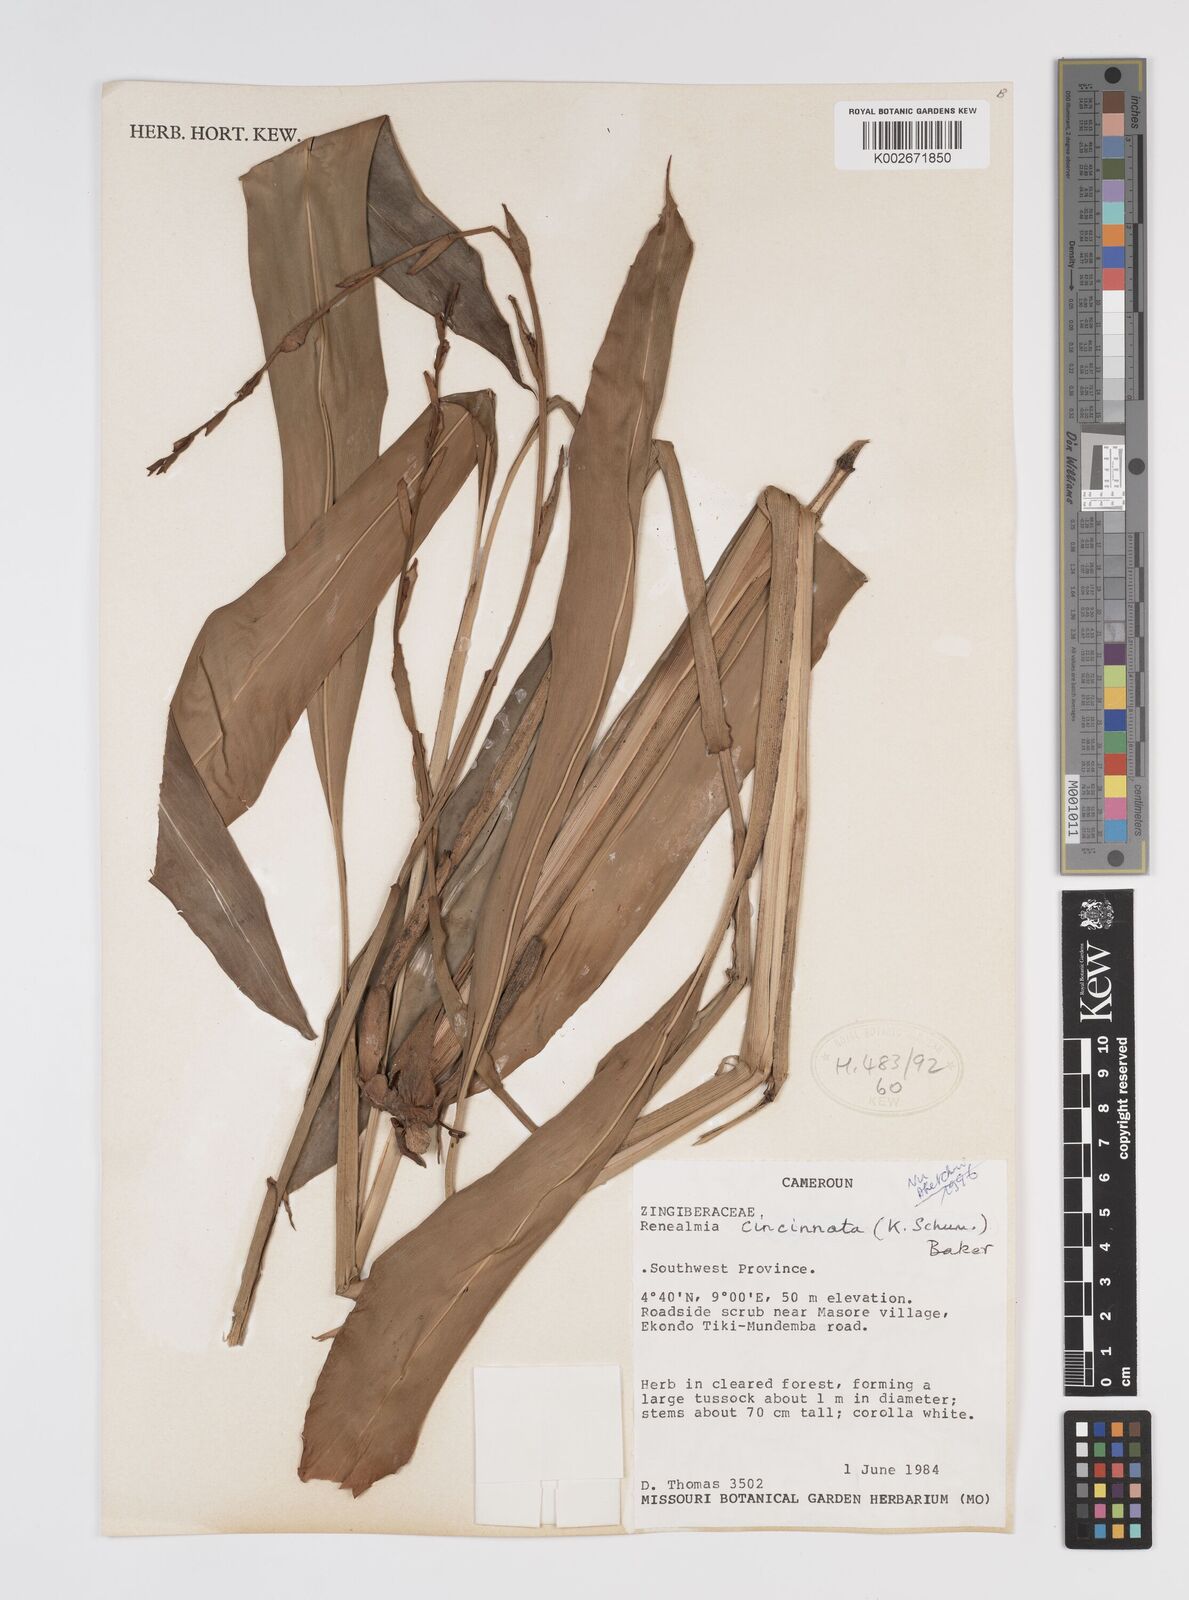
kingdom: Plantae
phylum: Tracheophyta
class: Liliopsida
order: Zingiberales
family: Zingiberaceae
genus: Renealmia
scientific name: Renealmia cincinnata
